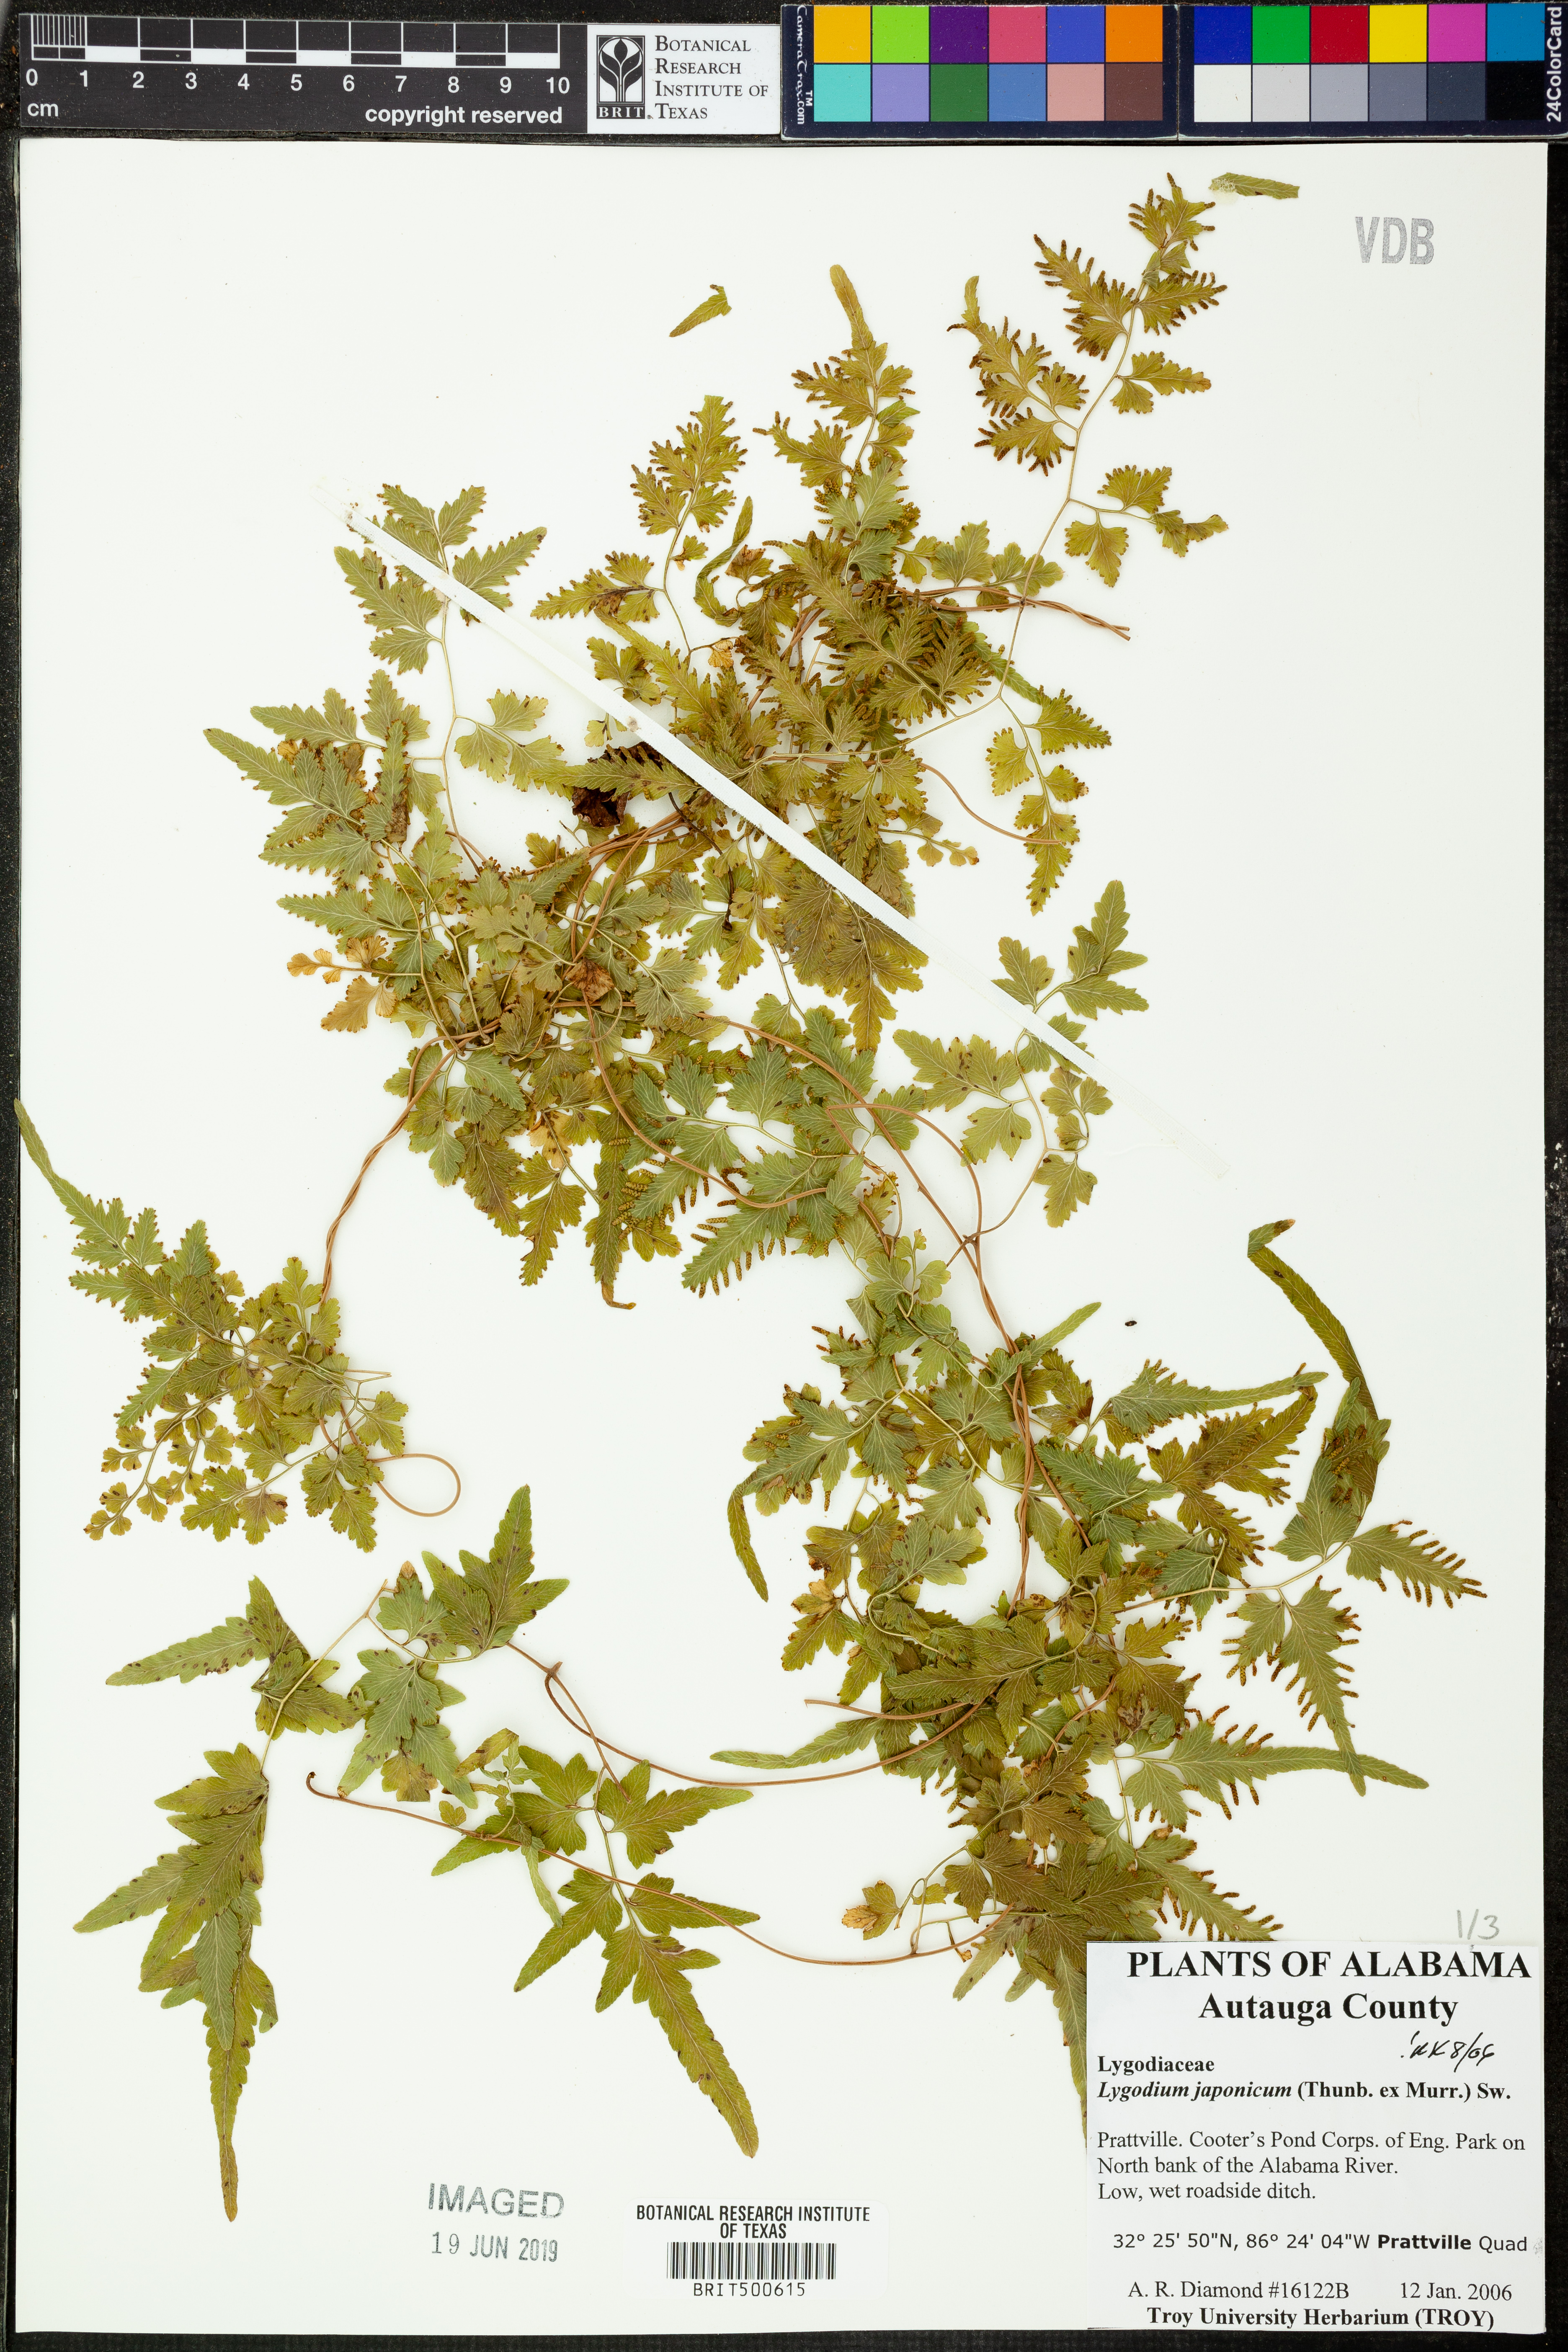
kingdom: Plantae
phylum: Tracheophyta
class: Polypodiopsida
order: Schizaeales
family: Lygodiaceae
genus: Lygodium
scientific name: Lygodium japonicum
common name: Japanese climbing fern
